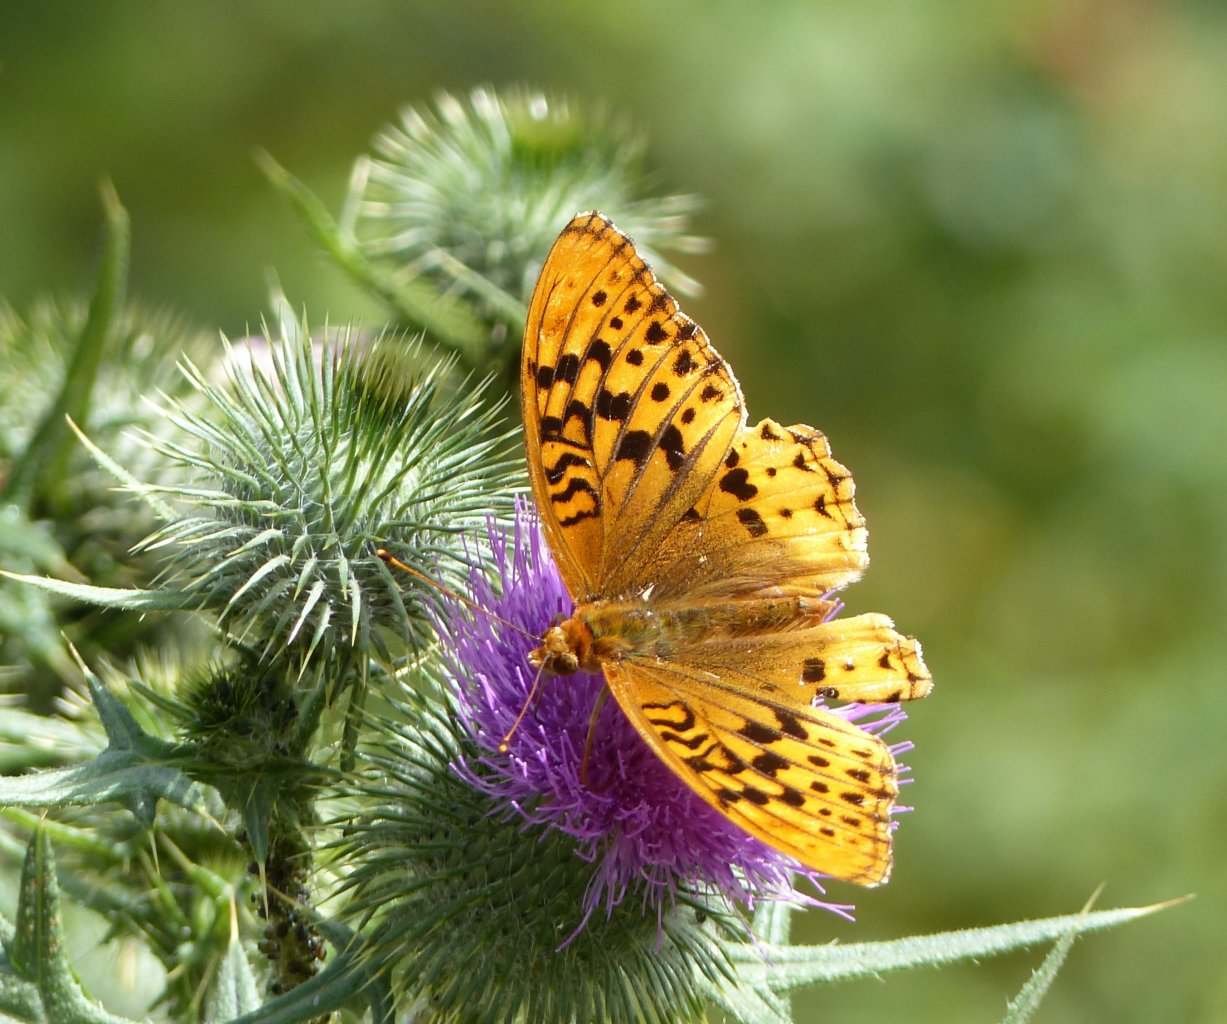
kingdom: Animalia
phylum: Arthropoda
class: Insecta
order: Lepidoptera
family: Nymphalidae
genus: Speyeria
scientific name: Speyeria zerene
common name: Zerene Fritillary
